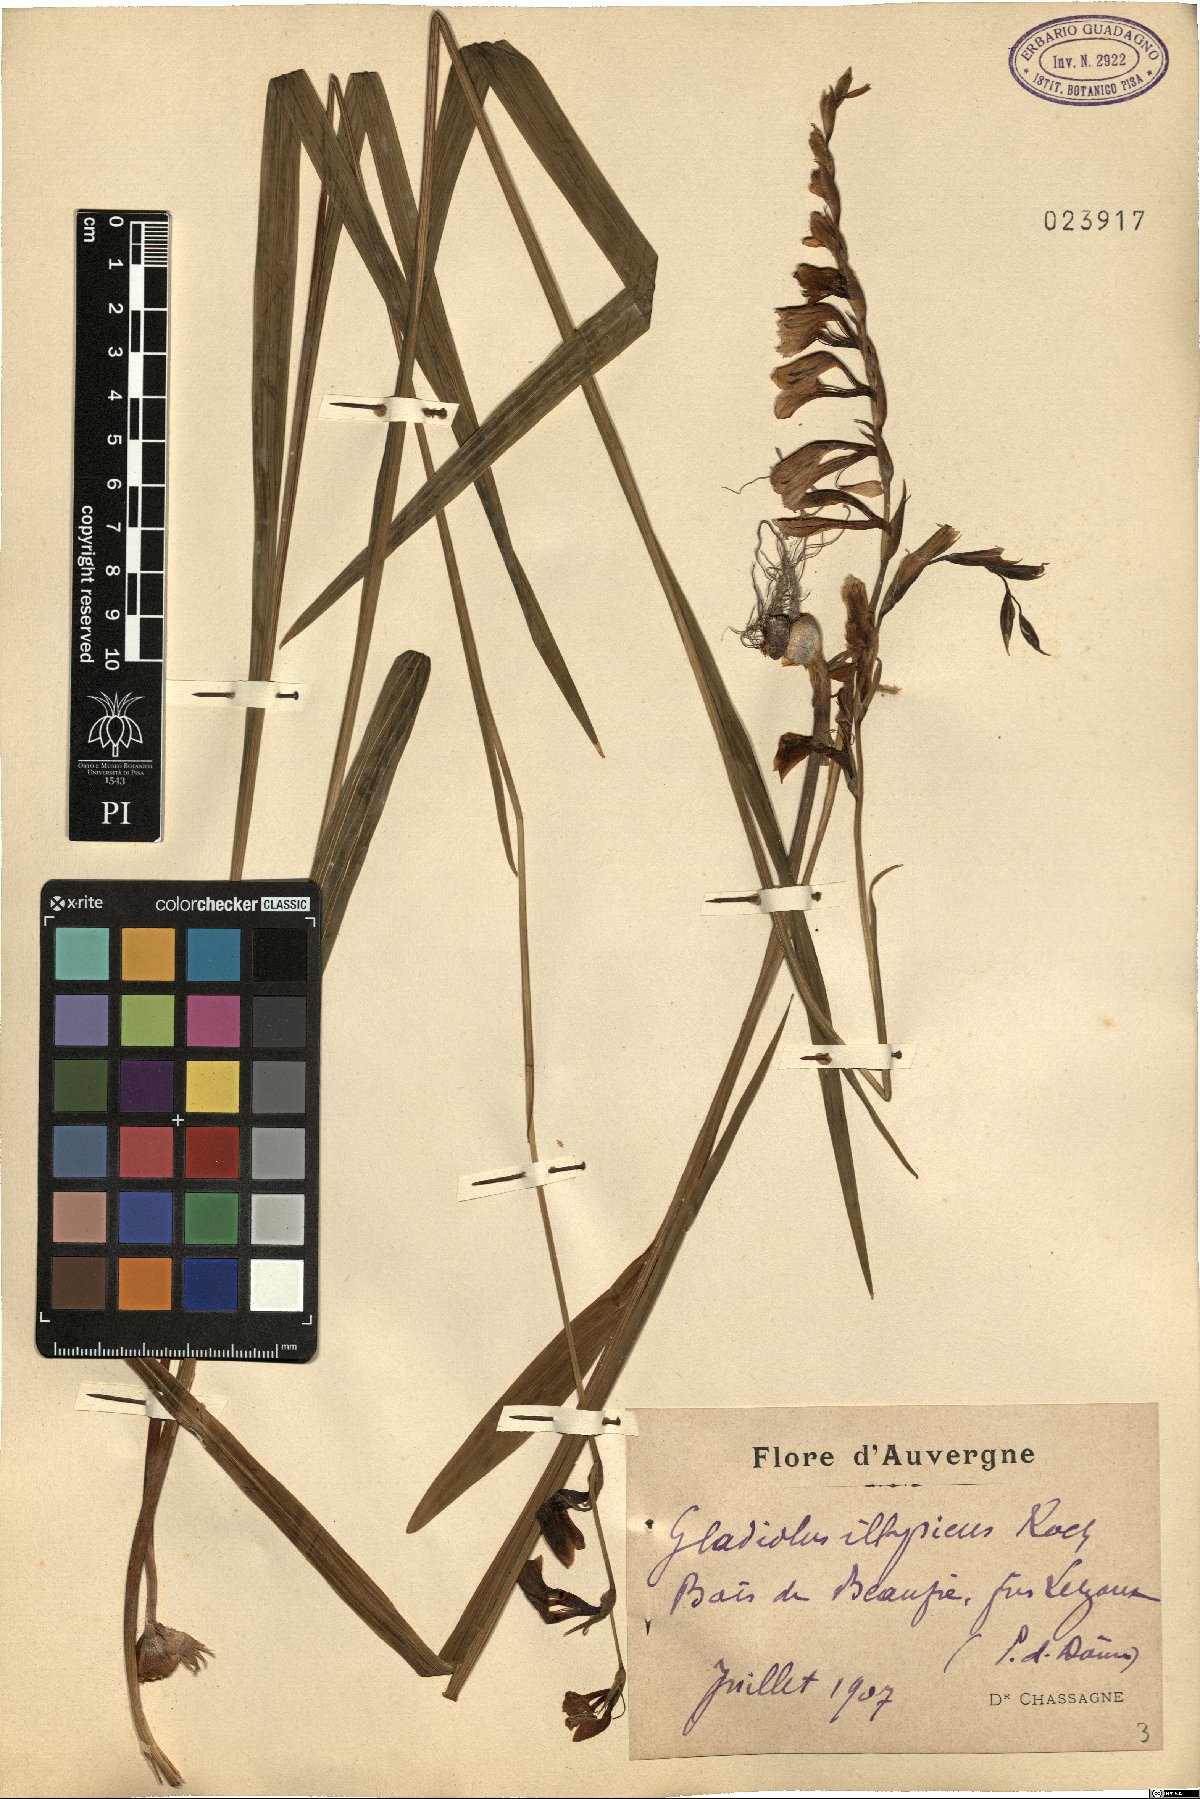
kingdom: Plantae
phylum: Tracheophyta
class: Liliopsida
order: Asparagales
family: Iridaceae
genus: Gladiolus
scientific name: Gladiolus illyricus
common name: Wild gladiolus
